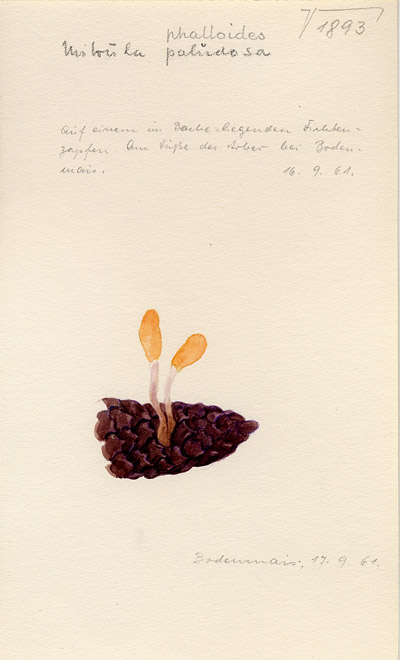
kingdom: Fungi
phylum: Ascomycota
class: Leotiomycetes
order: Helotiales
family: Cenangiaceae
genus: Mitrula
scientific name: Mitrula paludosa
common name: Bog beacon
